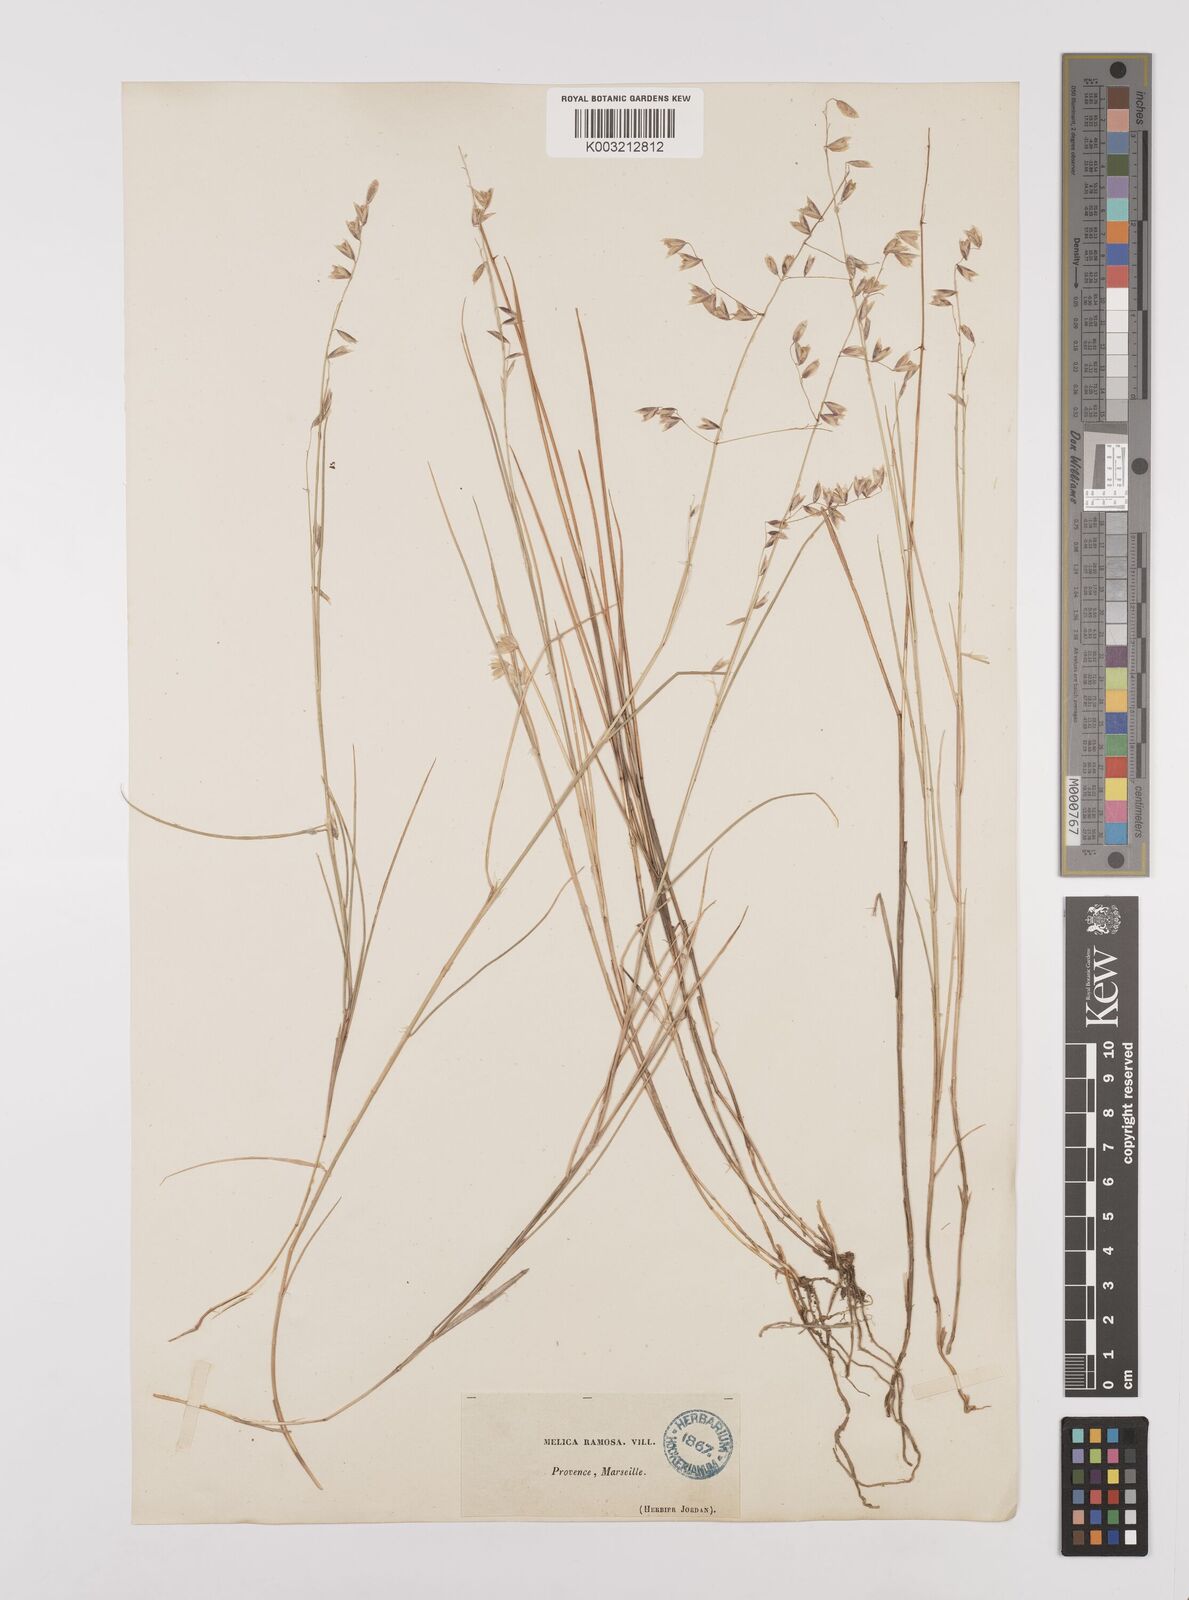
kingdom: Plantae
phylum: Tracheophyta
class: Liliopsida
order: Poales
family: Poaceae
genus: Melica
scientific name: Melica minuta
